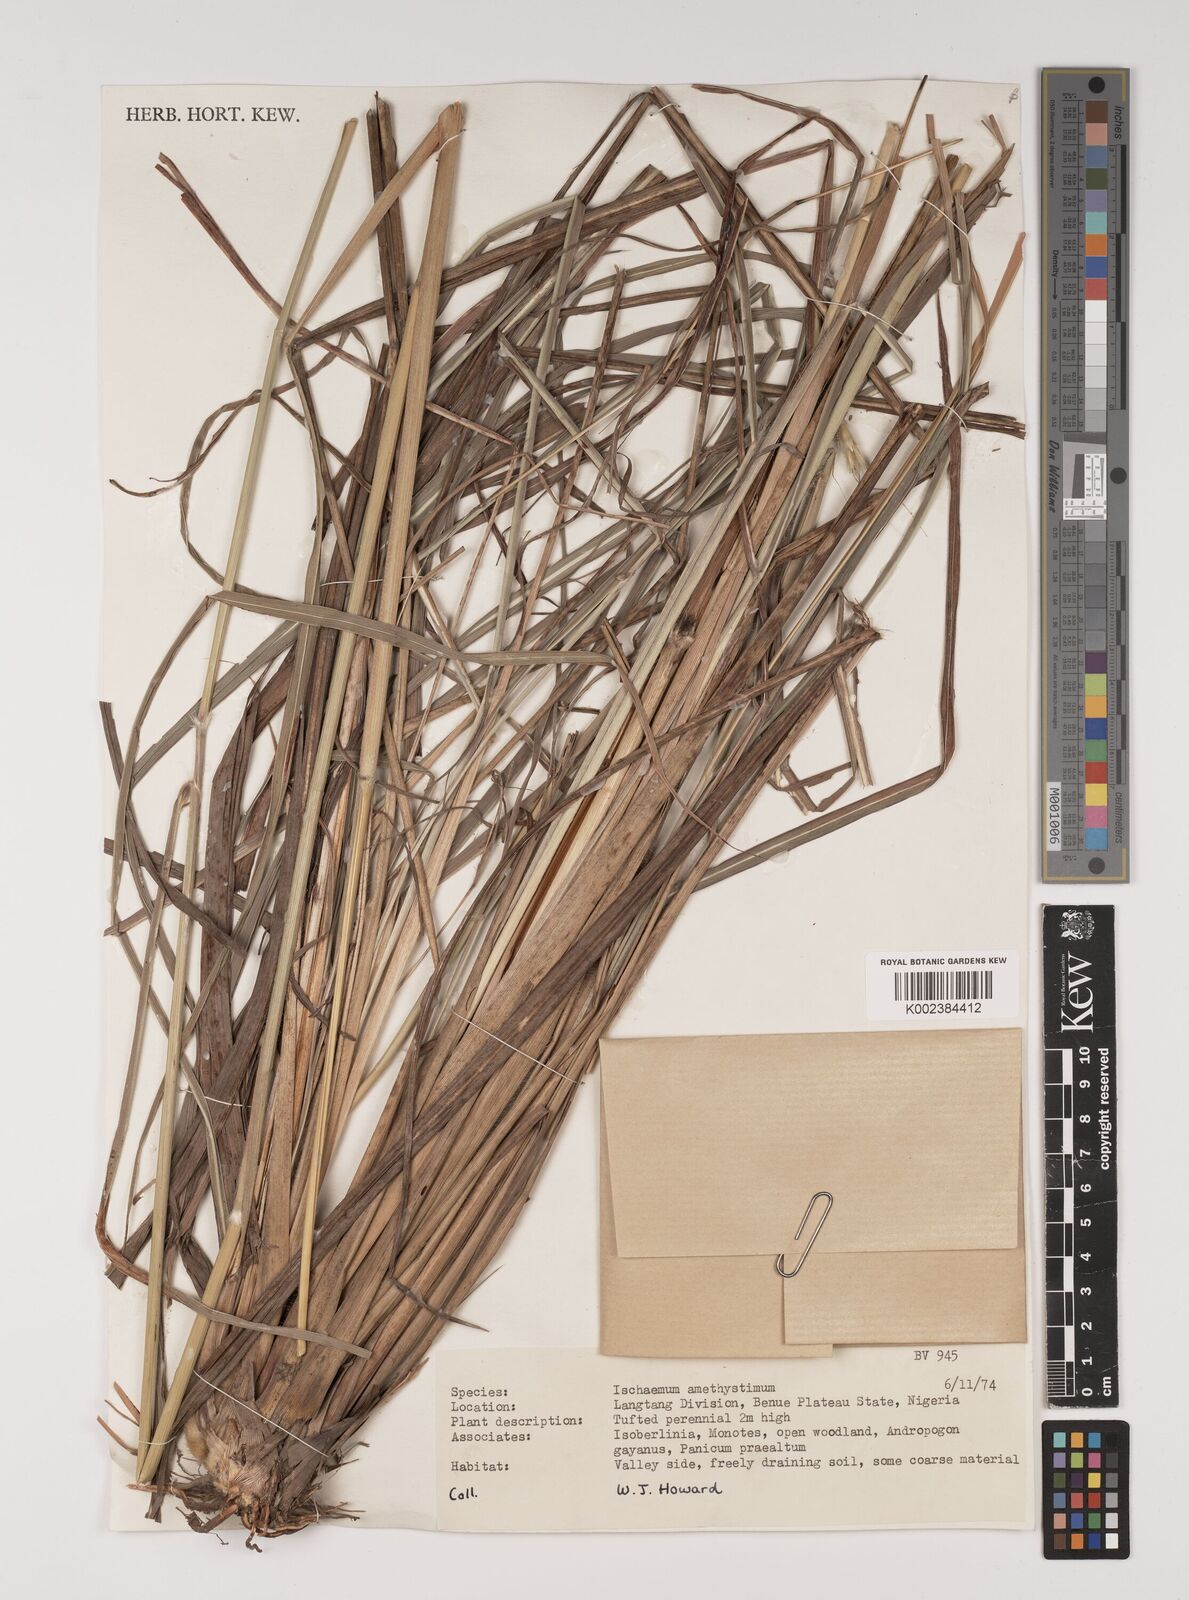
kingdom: Plantae
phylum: Tracheophyta
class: Liliopsida
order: Poales
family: Poaceae
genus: Ischaemum
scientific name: Ischaemum amethystinum
